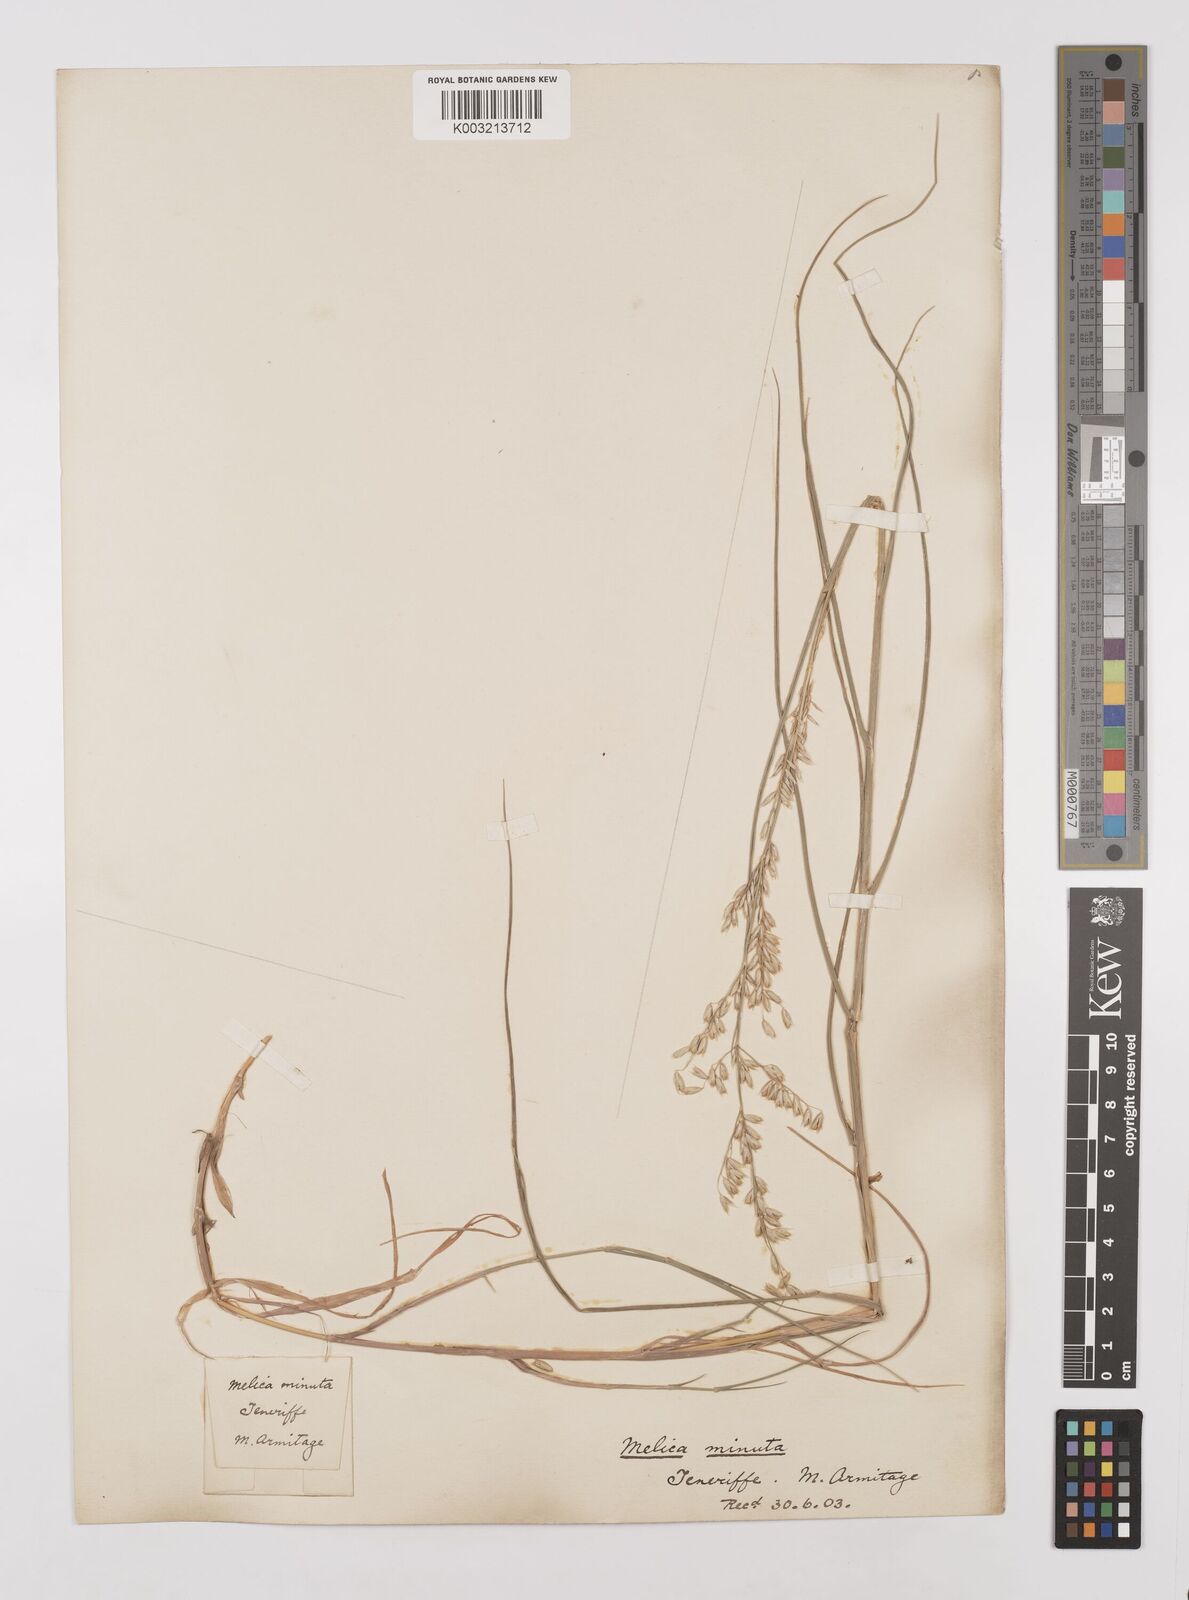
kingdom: Plantae
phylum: Tracheophyta
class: Liliopsida
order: Poales
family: Poaceae
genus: Melica
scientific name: Melica minuta
